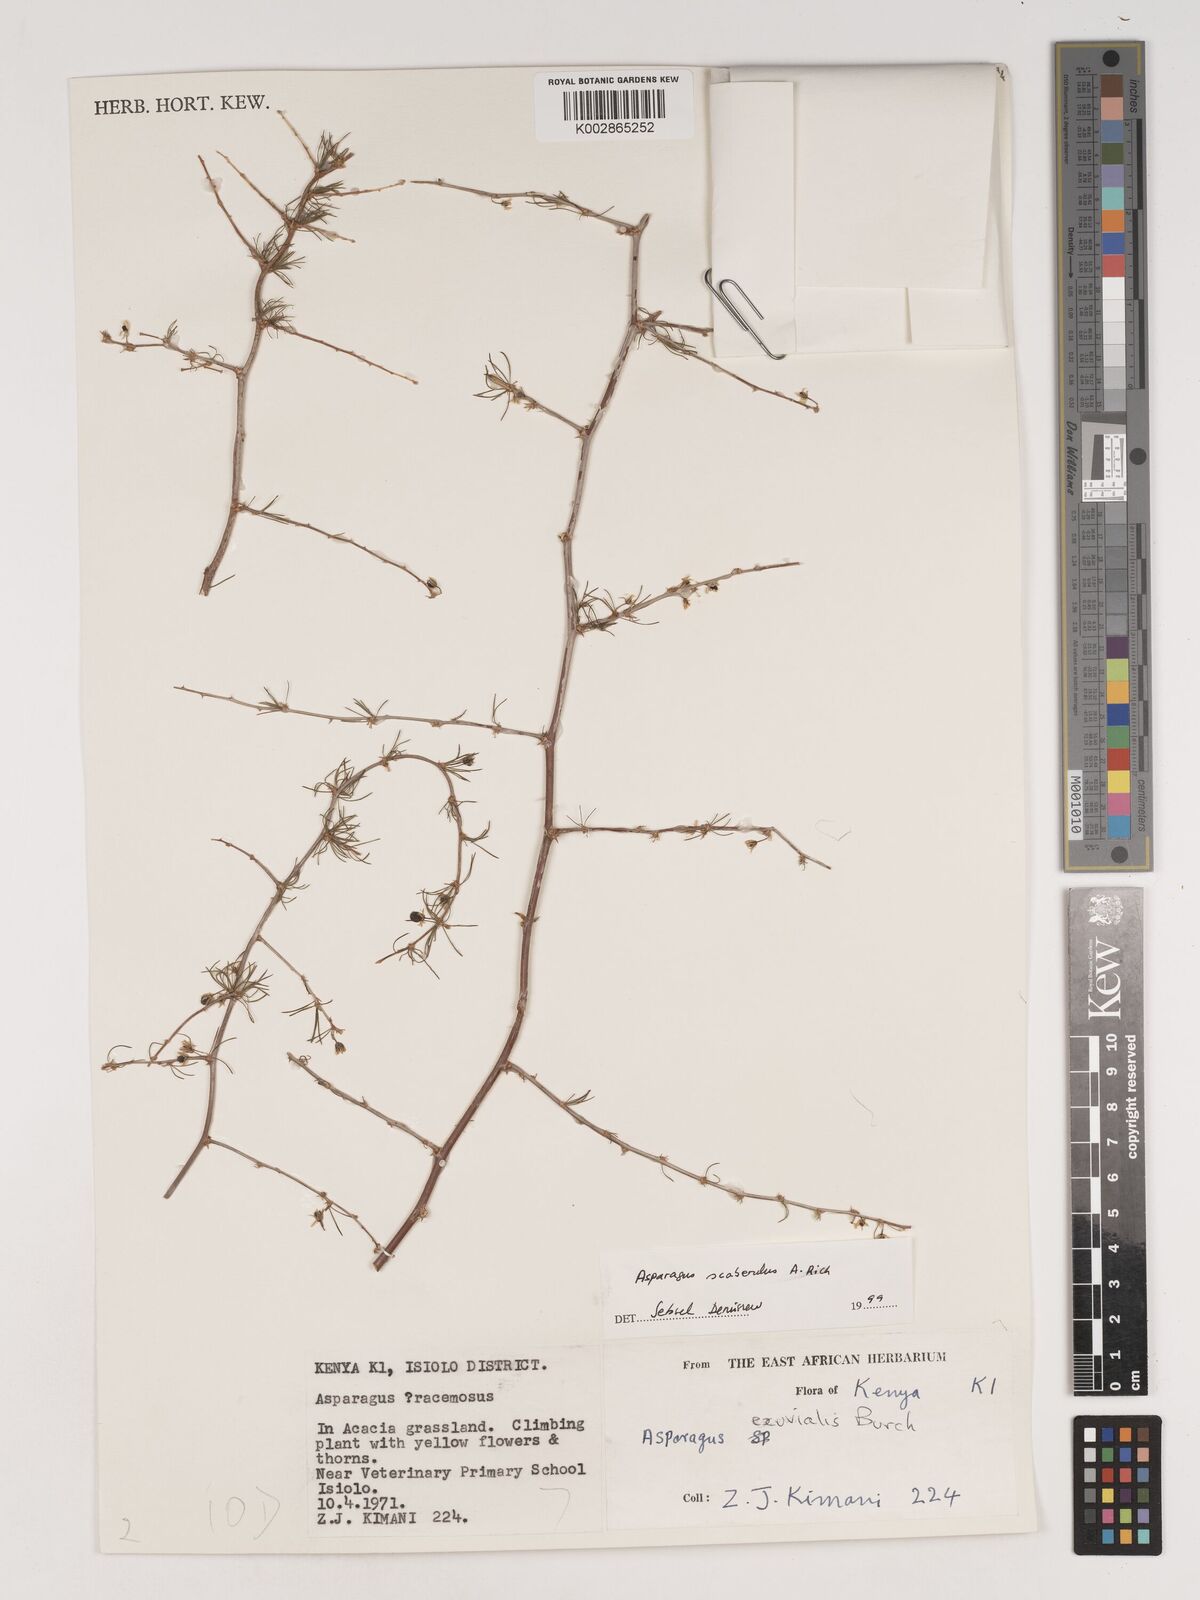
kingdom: Plantae
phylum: Tracheophyta
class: Liliopsida
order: Asparagales
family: Asparagaceae
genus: Asparagus
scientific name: Asparagus scaberulus
